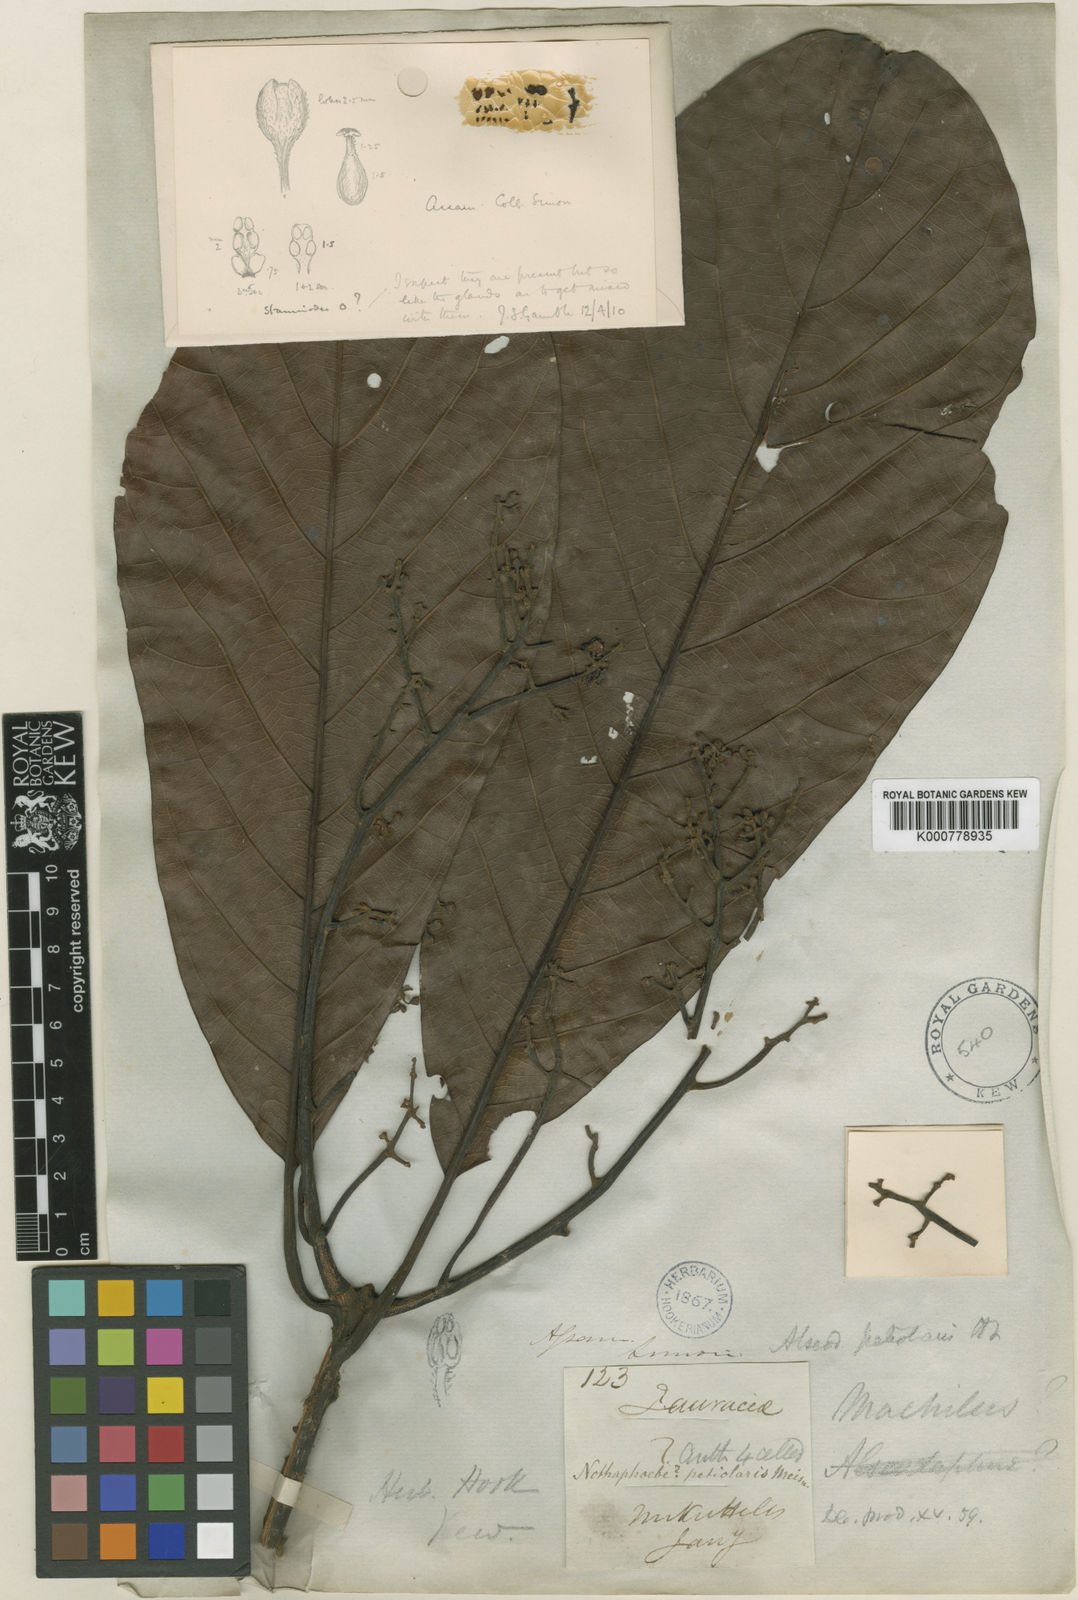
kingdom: Plantae
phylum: Tracheophyta
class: Magnoliopsida
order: Laurales
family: Lauraceae
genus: Alseodaphnopsis
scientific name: Alseodaphnopsis petiolaris
